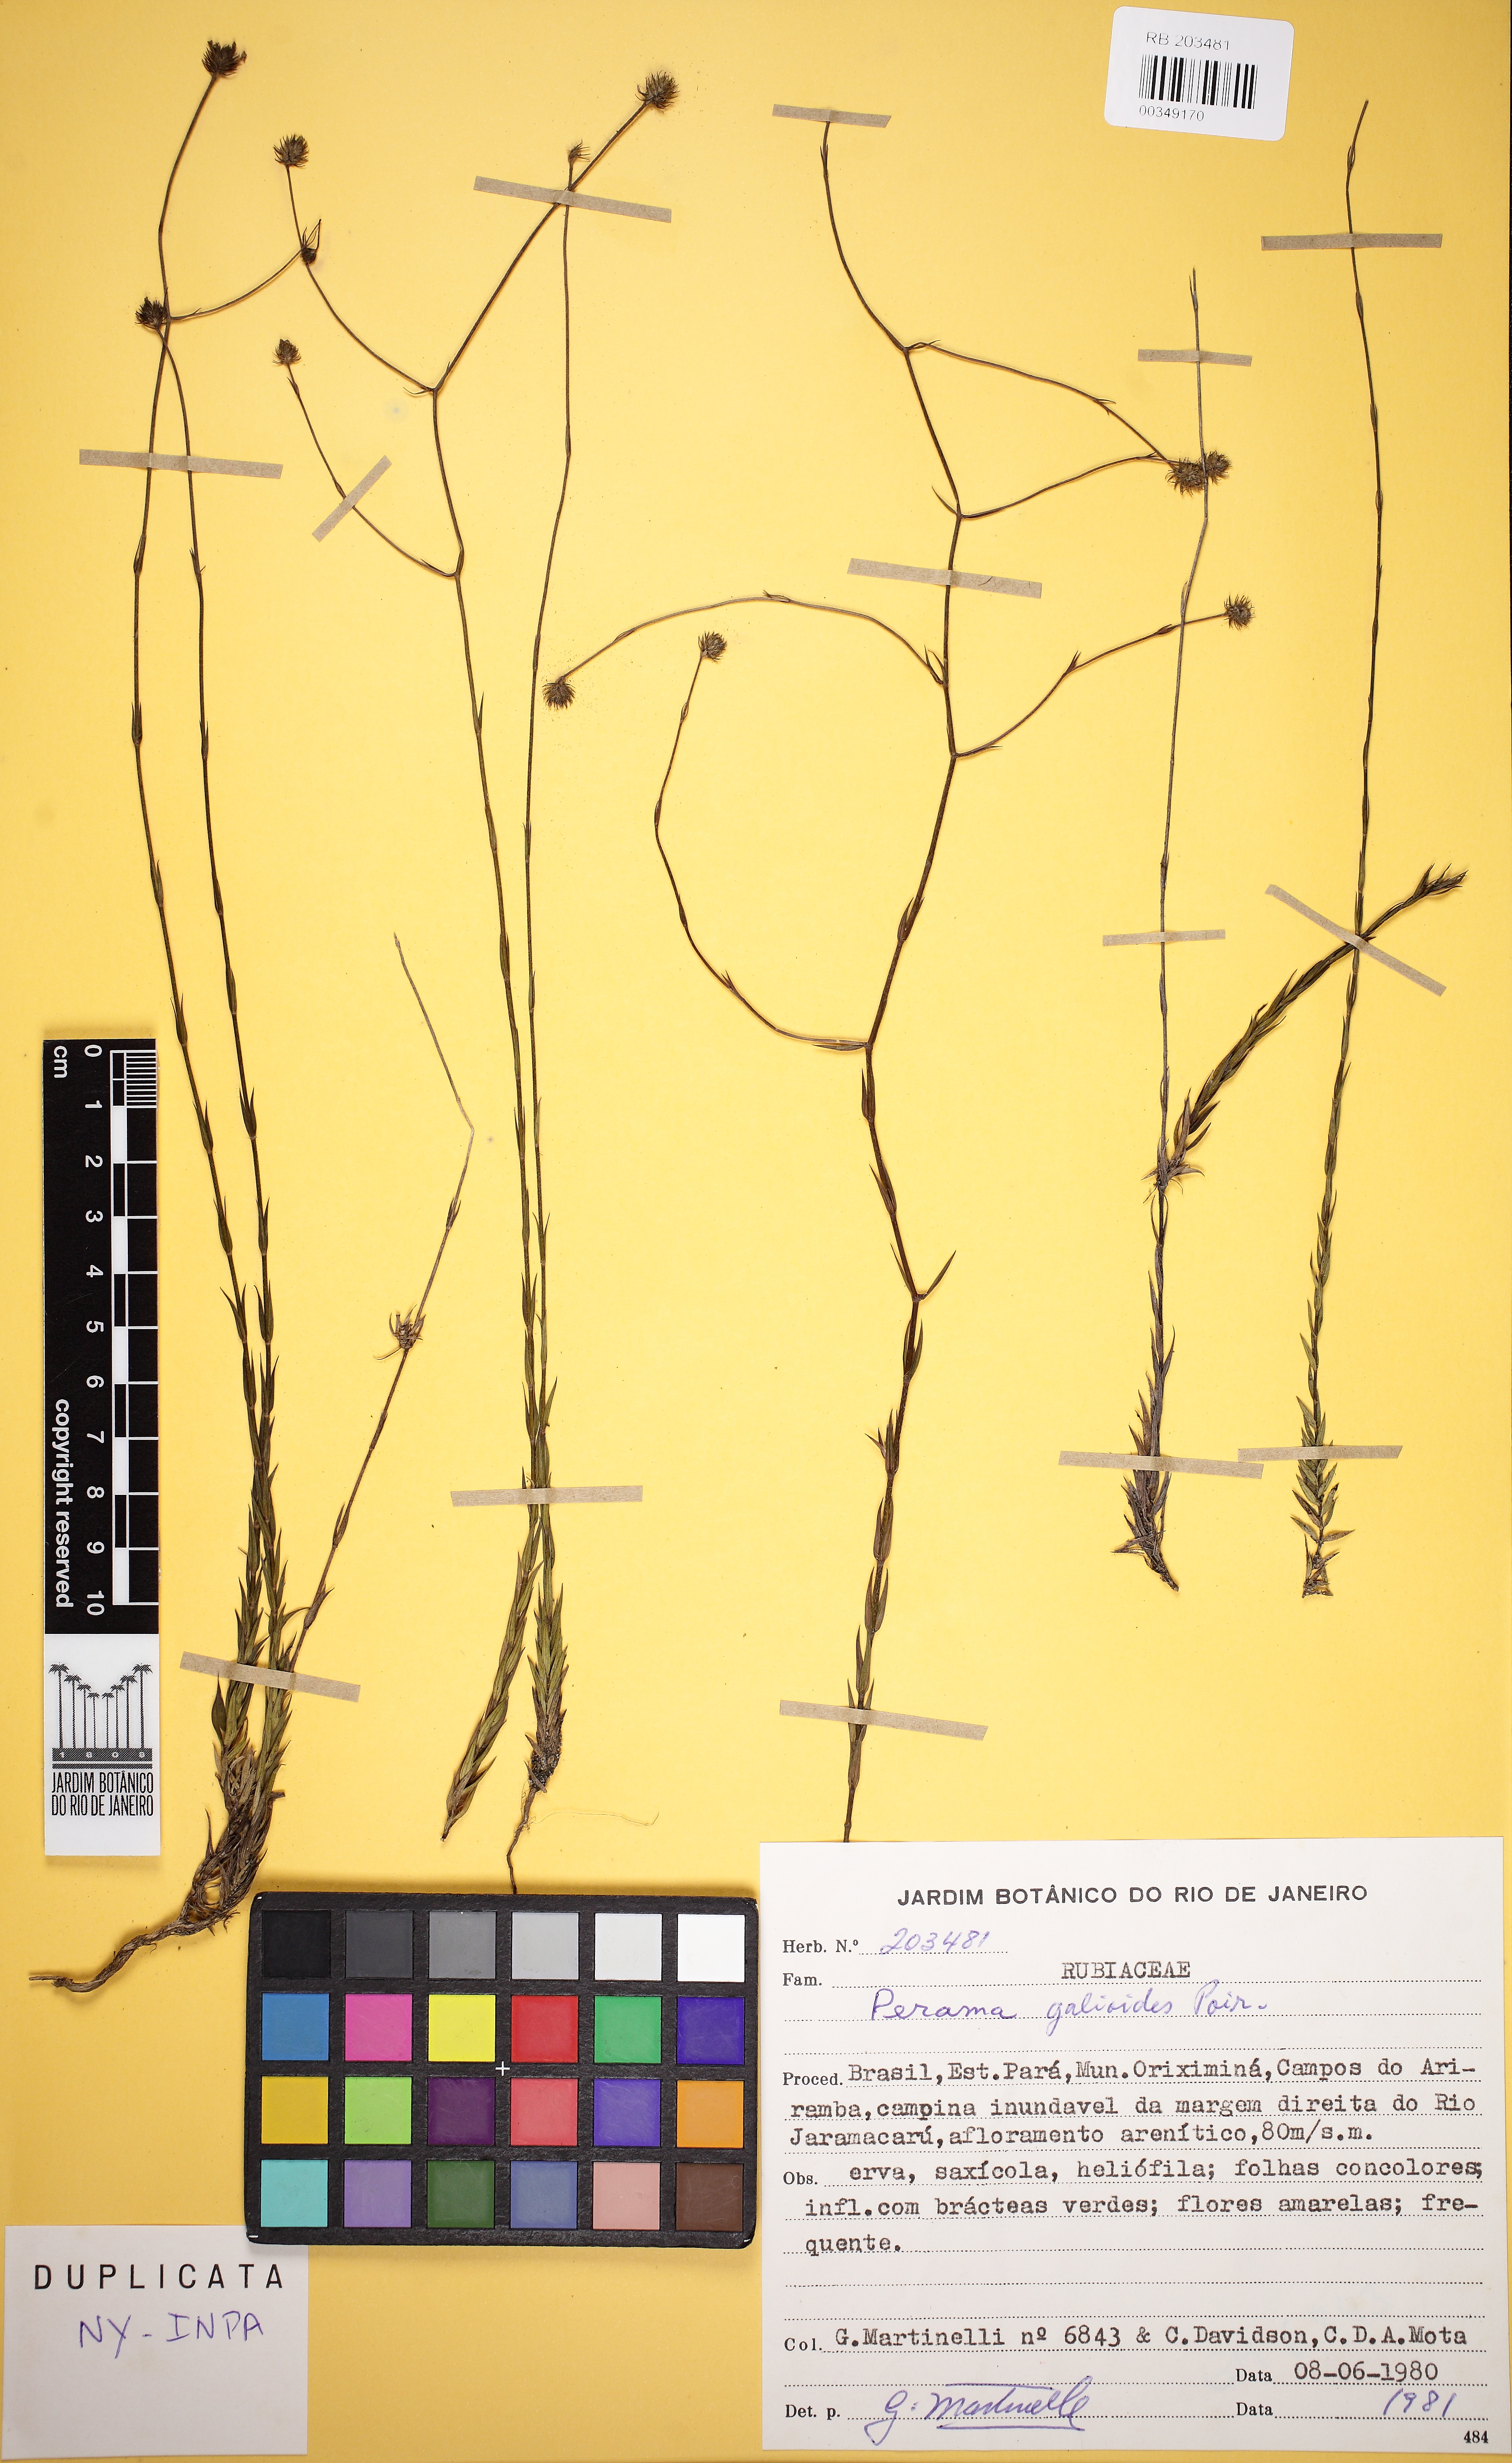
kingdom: Plantae
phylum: Tracheophyta
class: Magnoliopsida
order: Gentianales
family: Rubiaceae
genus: Perama
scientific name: Perama galioides
